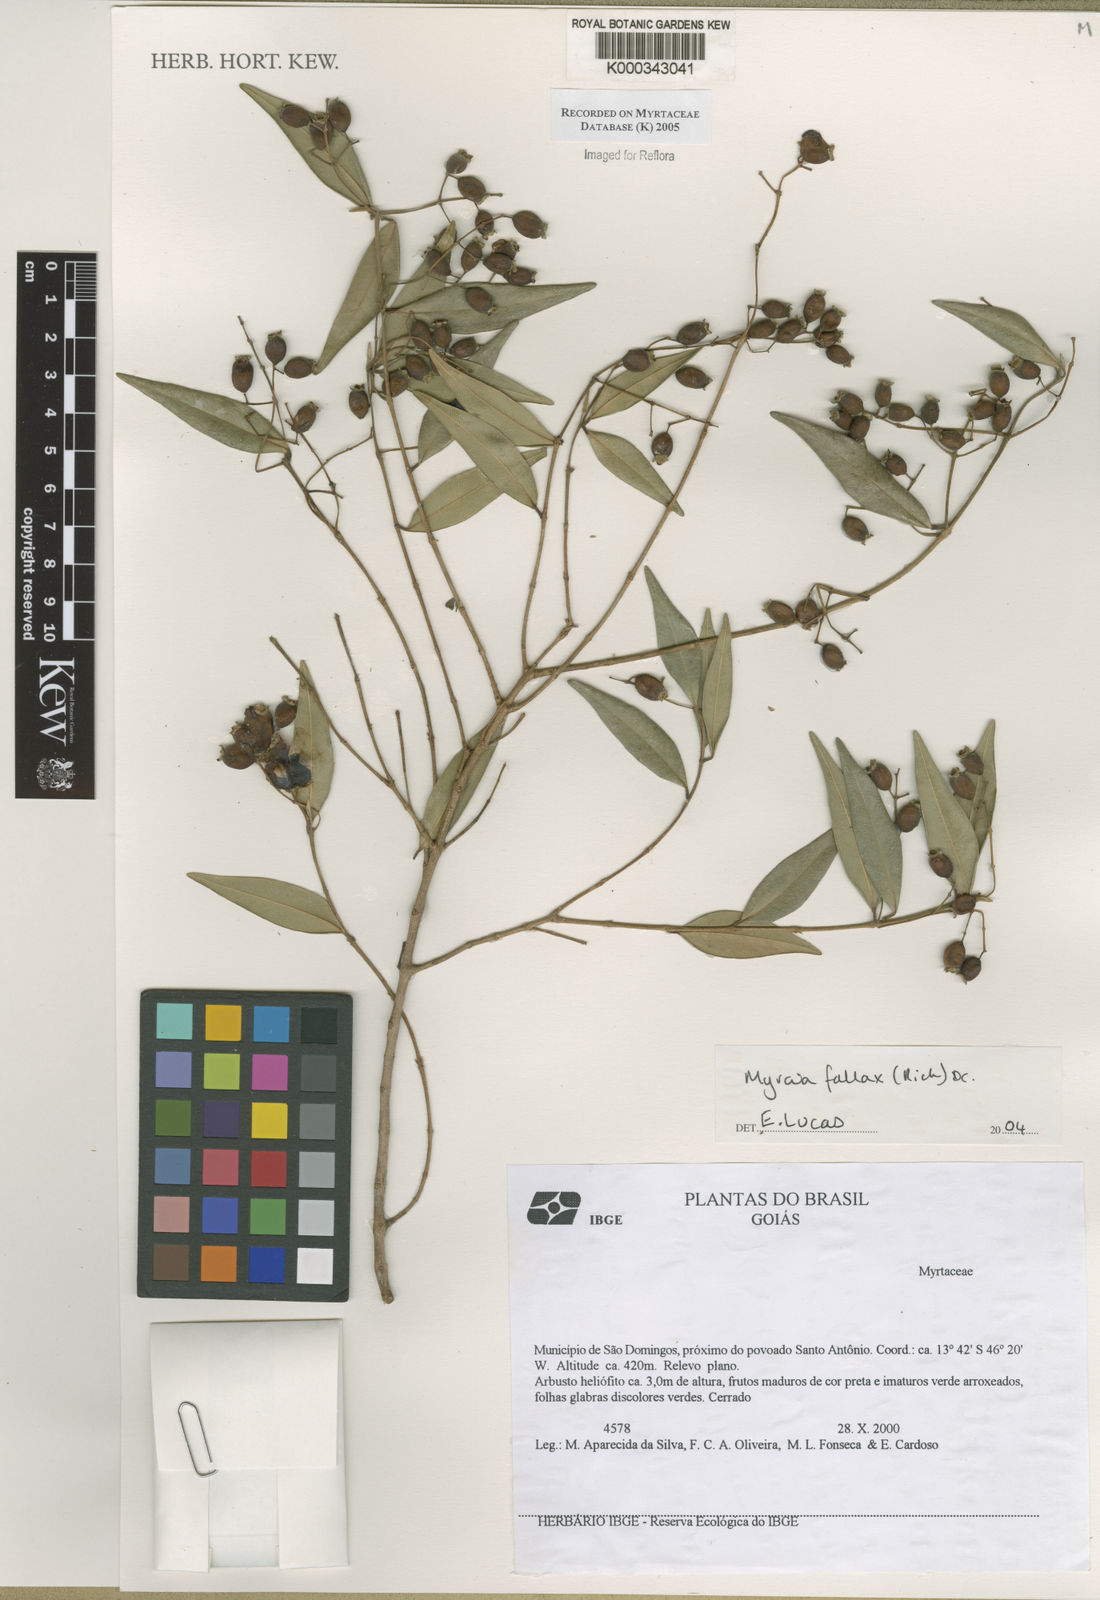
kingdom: Plantae
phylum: Tracheophyta
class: Magnoliopsida
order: Myrtales
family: Myrtaceae
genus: Myrcia
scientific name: Myrcia splendens
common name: Surinam cherry
